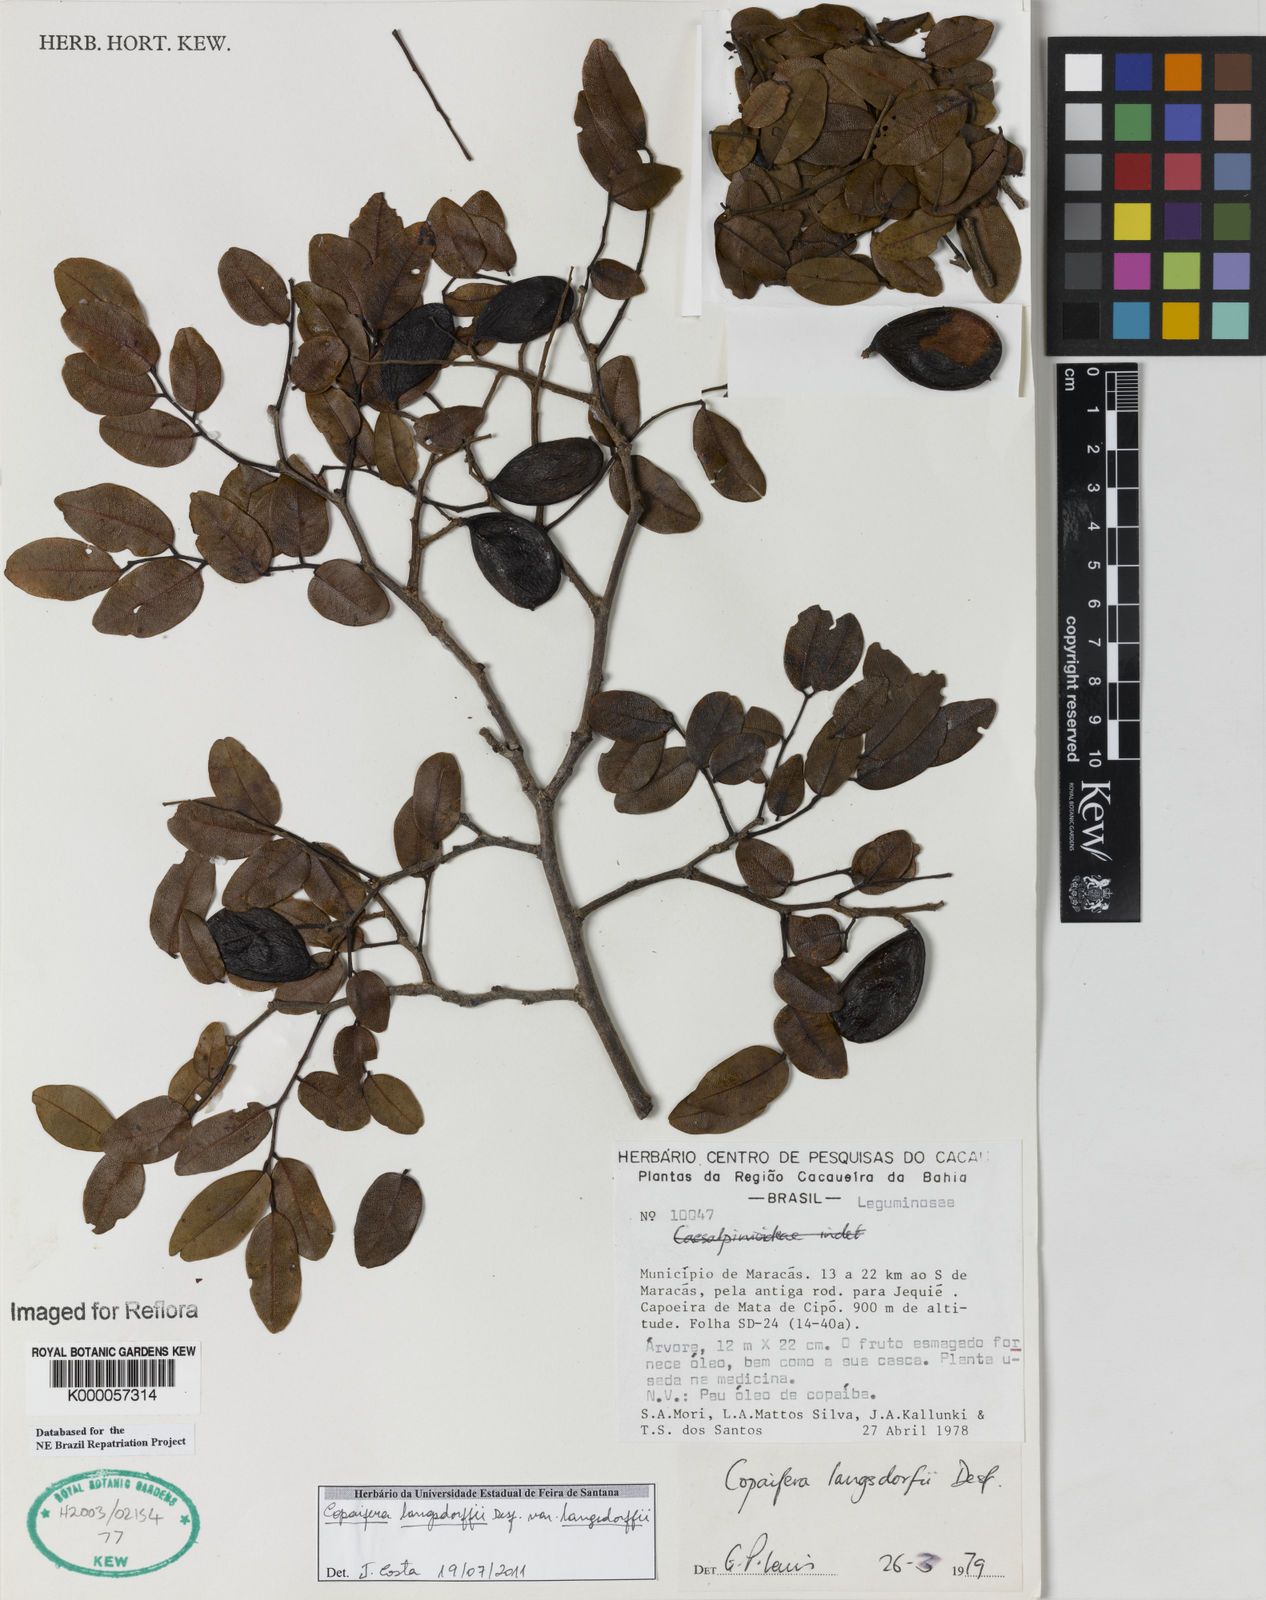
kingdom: Plantae
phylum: Tracheophyta
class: Magnoliopsida
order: Fabales
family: Fabaceae
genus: Copaifera
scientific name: Copaifera langsdorffii
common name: Brazilian diesel tree
